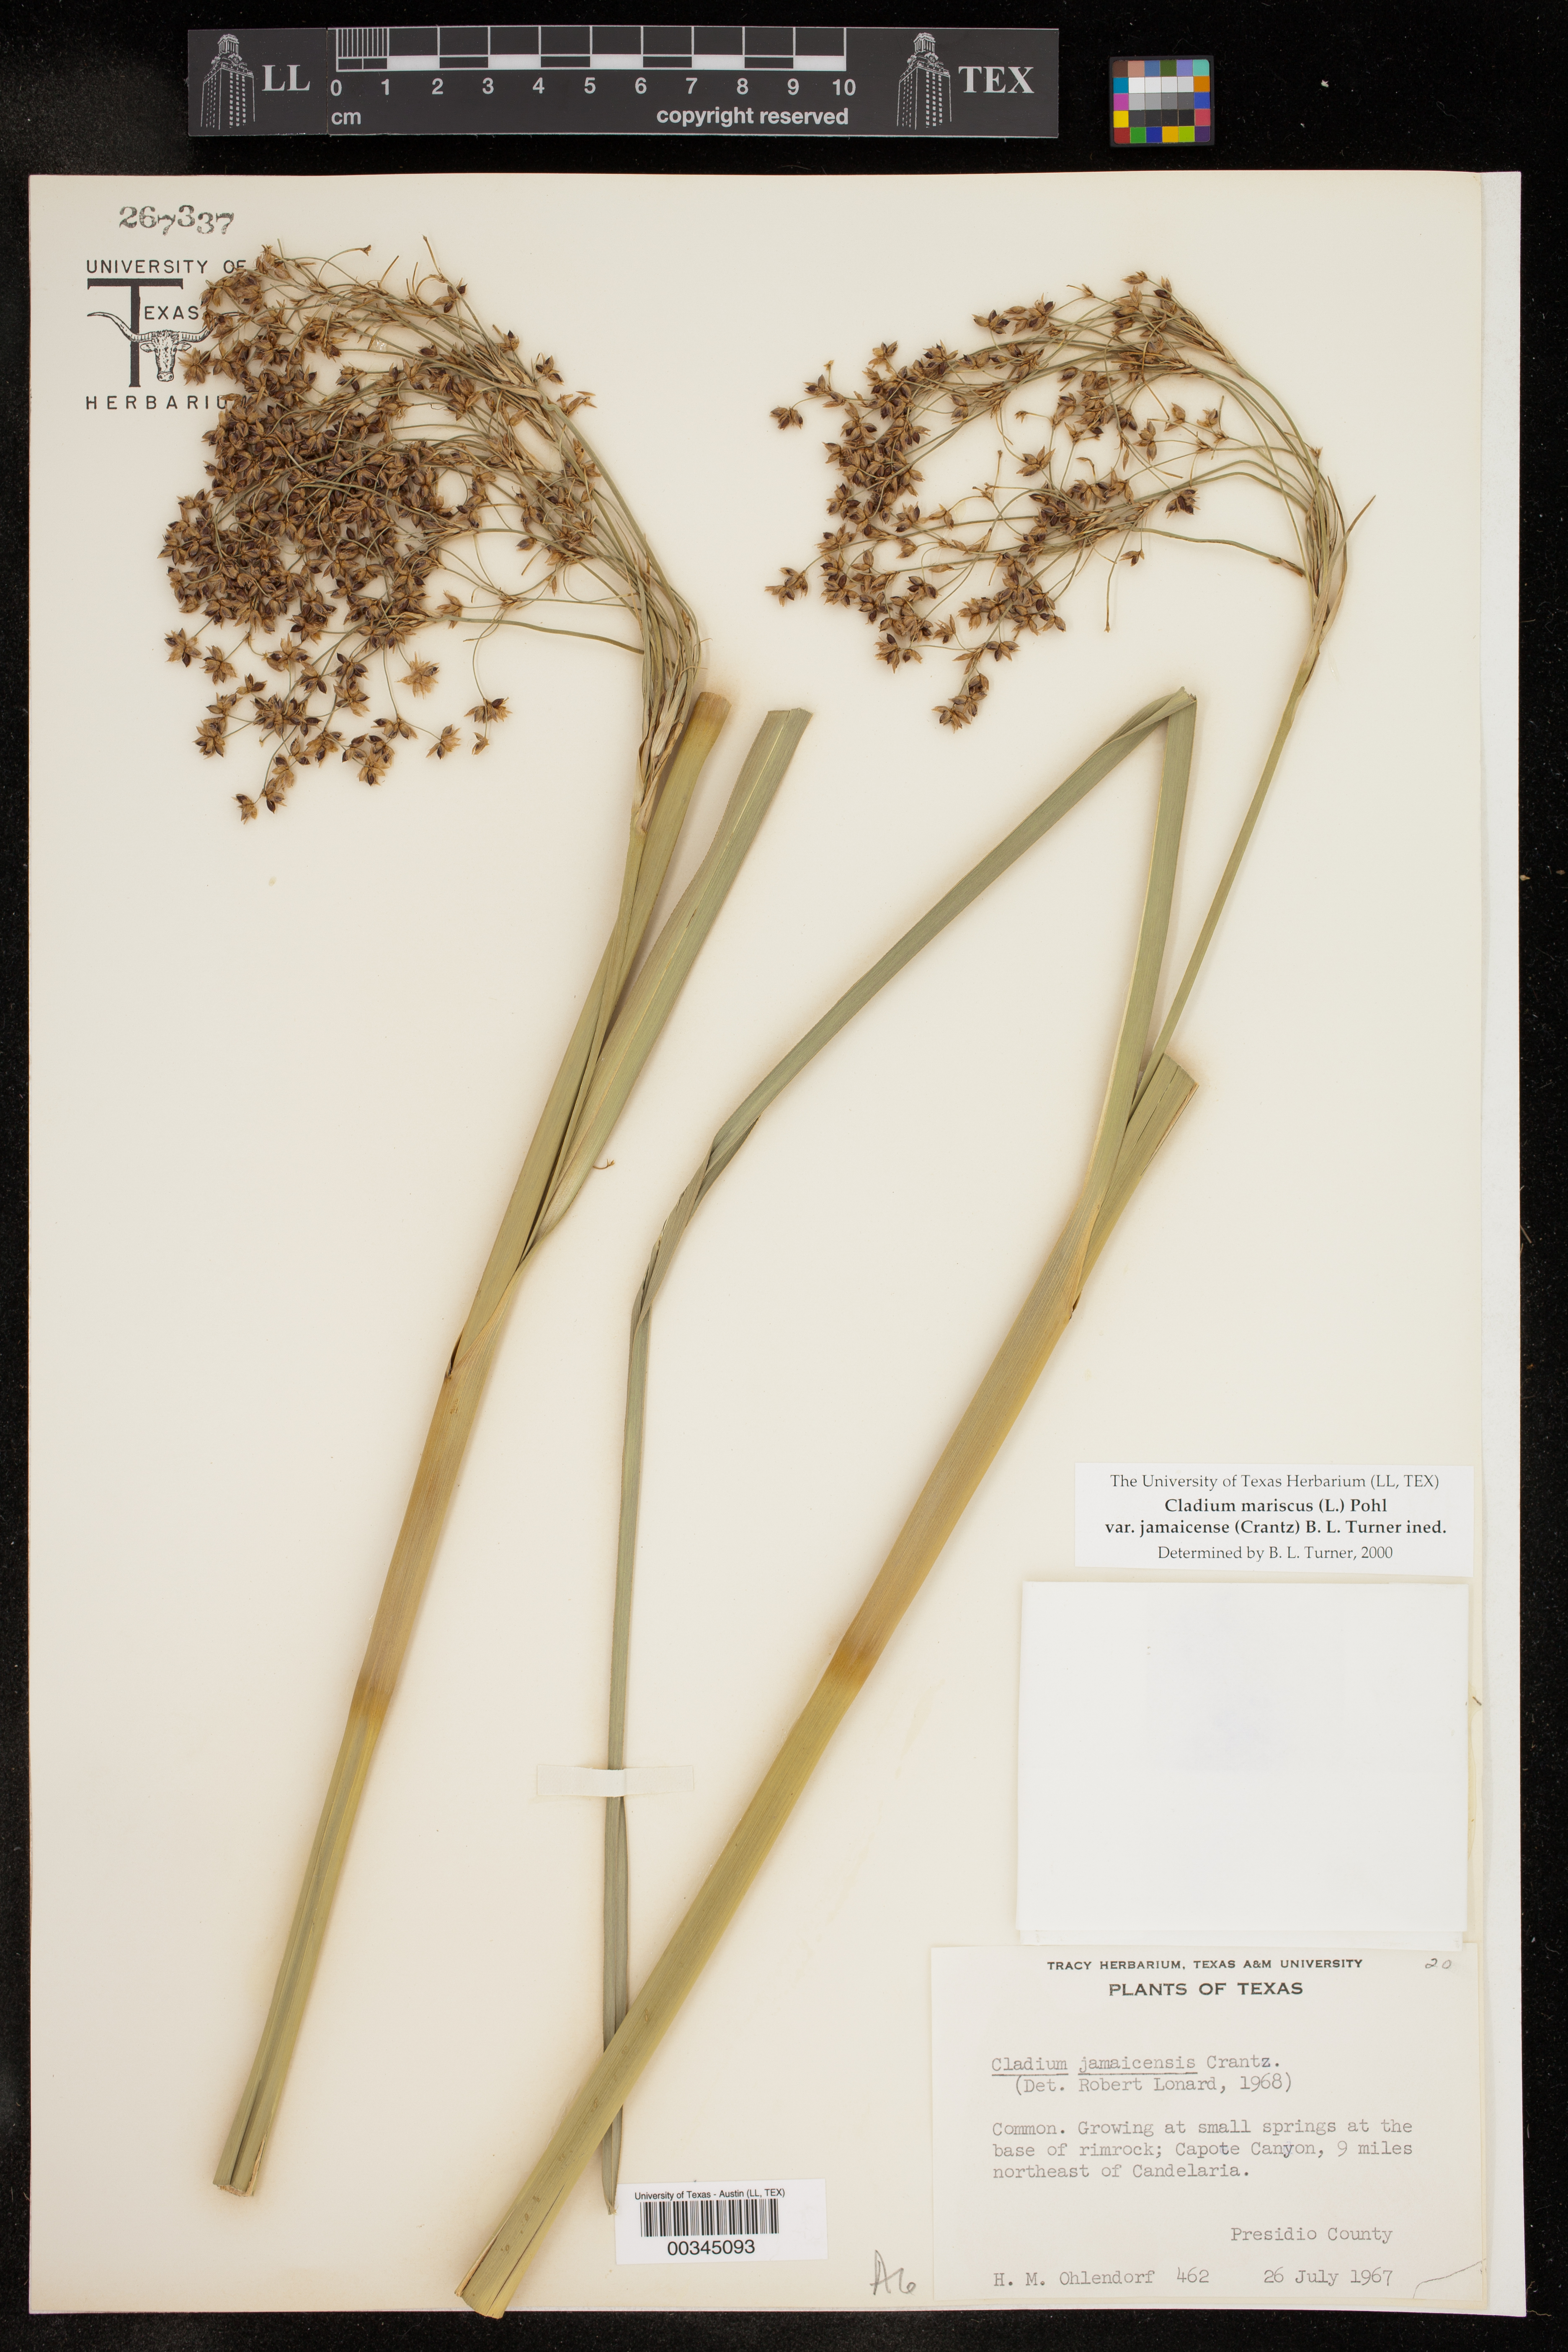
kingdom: Plantae
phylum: Tracheophyta
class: Liliopsida
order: Poales
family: Cyperaceae
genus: Cladium
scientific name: Cladium mariscus
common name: Great fen-sedge
